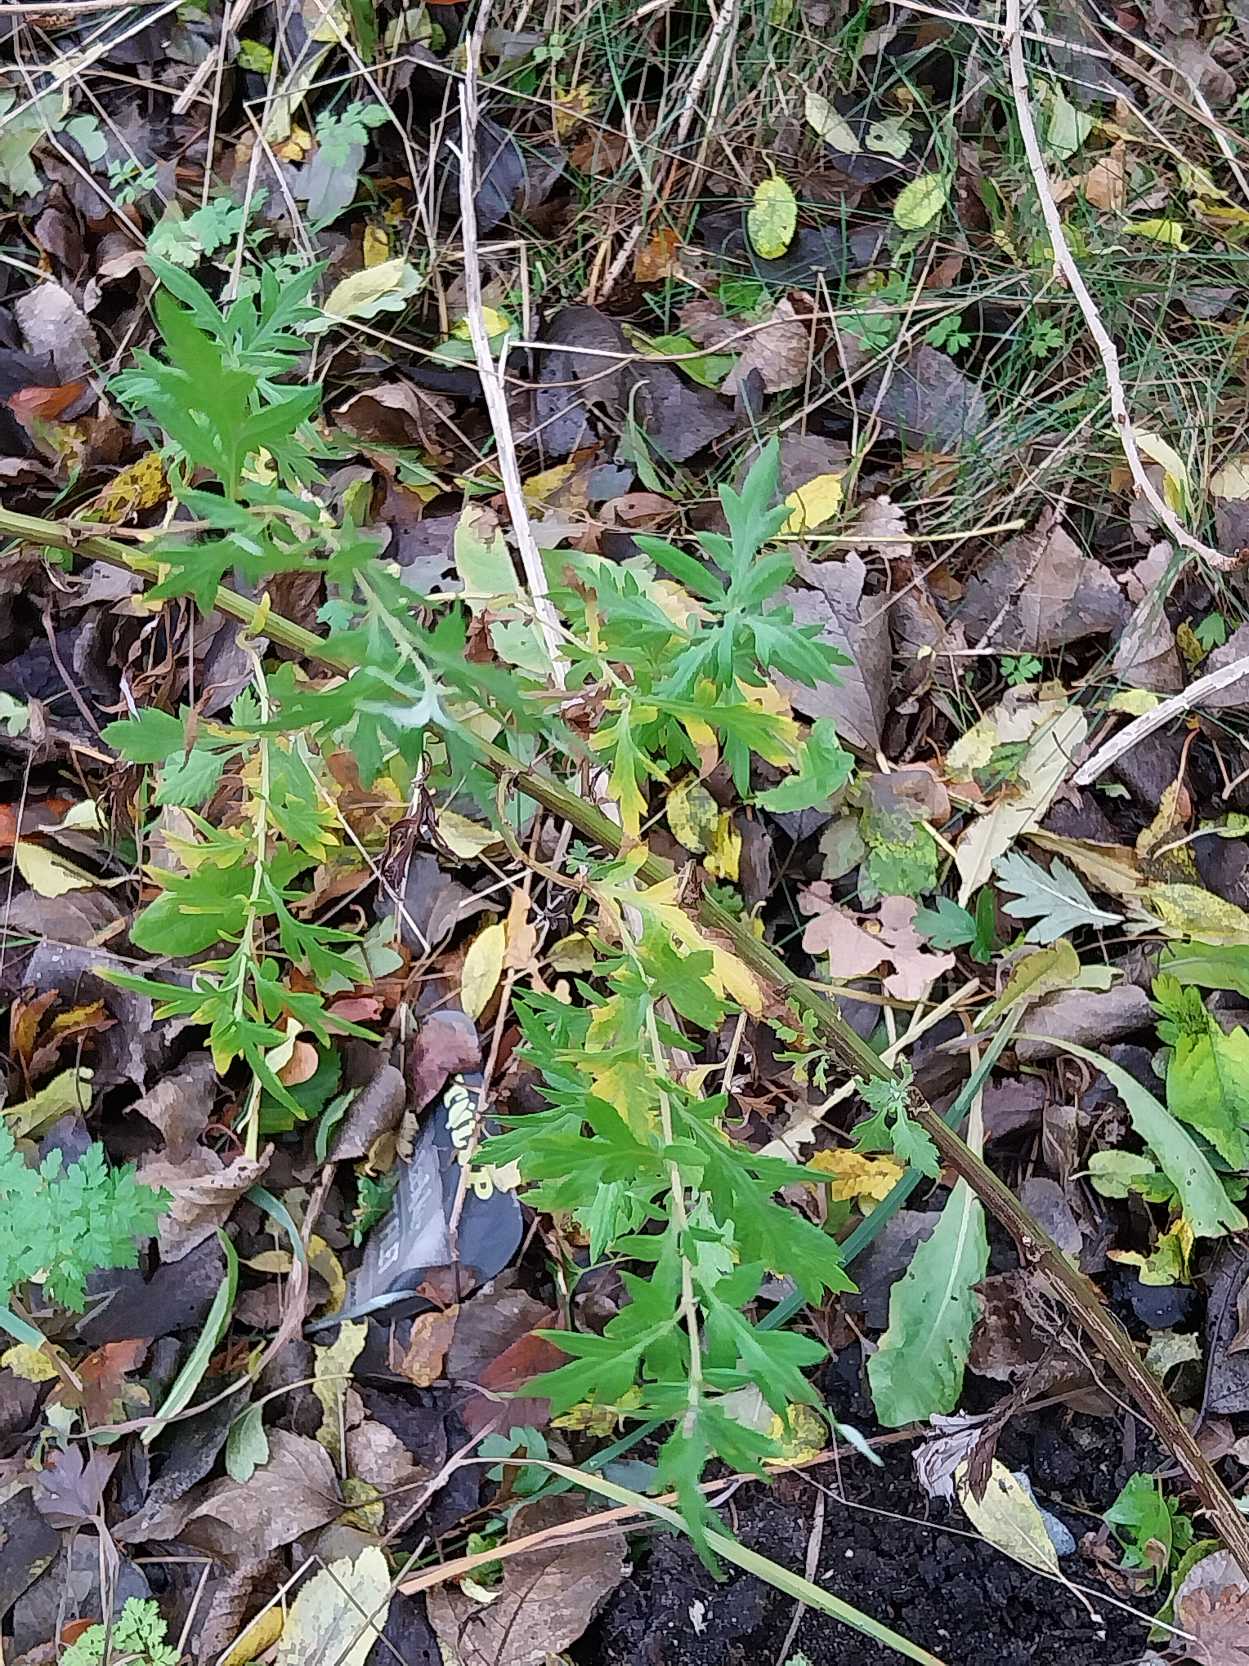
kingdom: Plantae
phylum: Tracheophyta
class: Magnoliopsida
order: Asterales
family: Asteraceae
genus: Artemisia
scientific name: Artemisia vulgaris
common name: Grå-bynke
